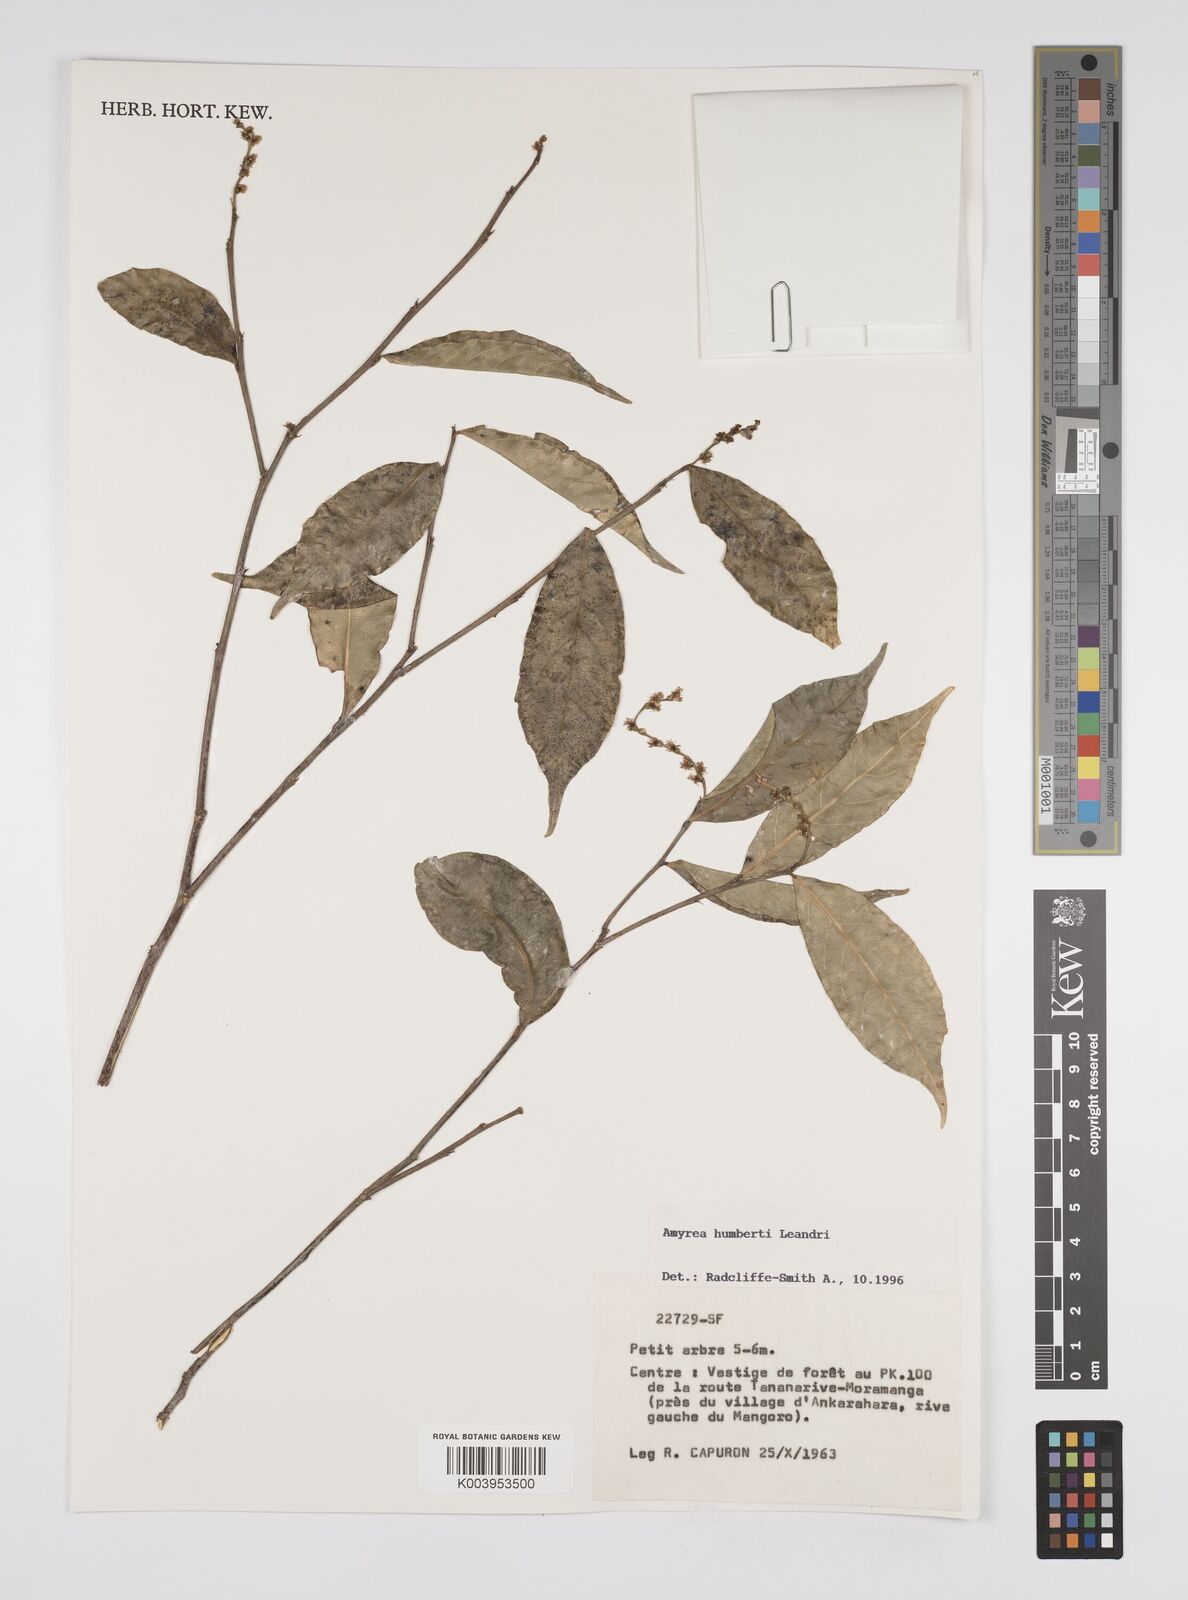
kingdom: Plantae
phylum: Tracheophyta
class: Magnoliopsida
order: Malpighiales
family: Euphorbiaceae
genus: Amyrea
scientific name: Amyrea humbertii
